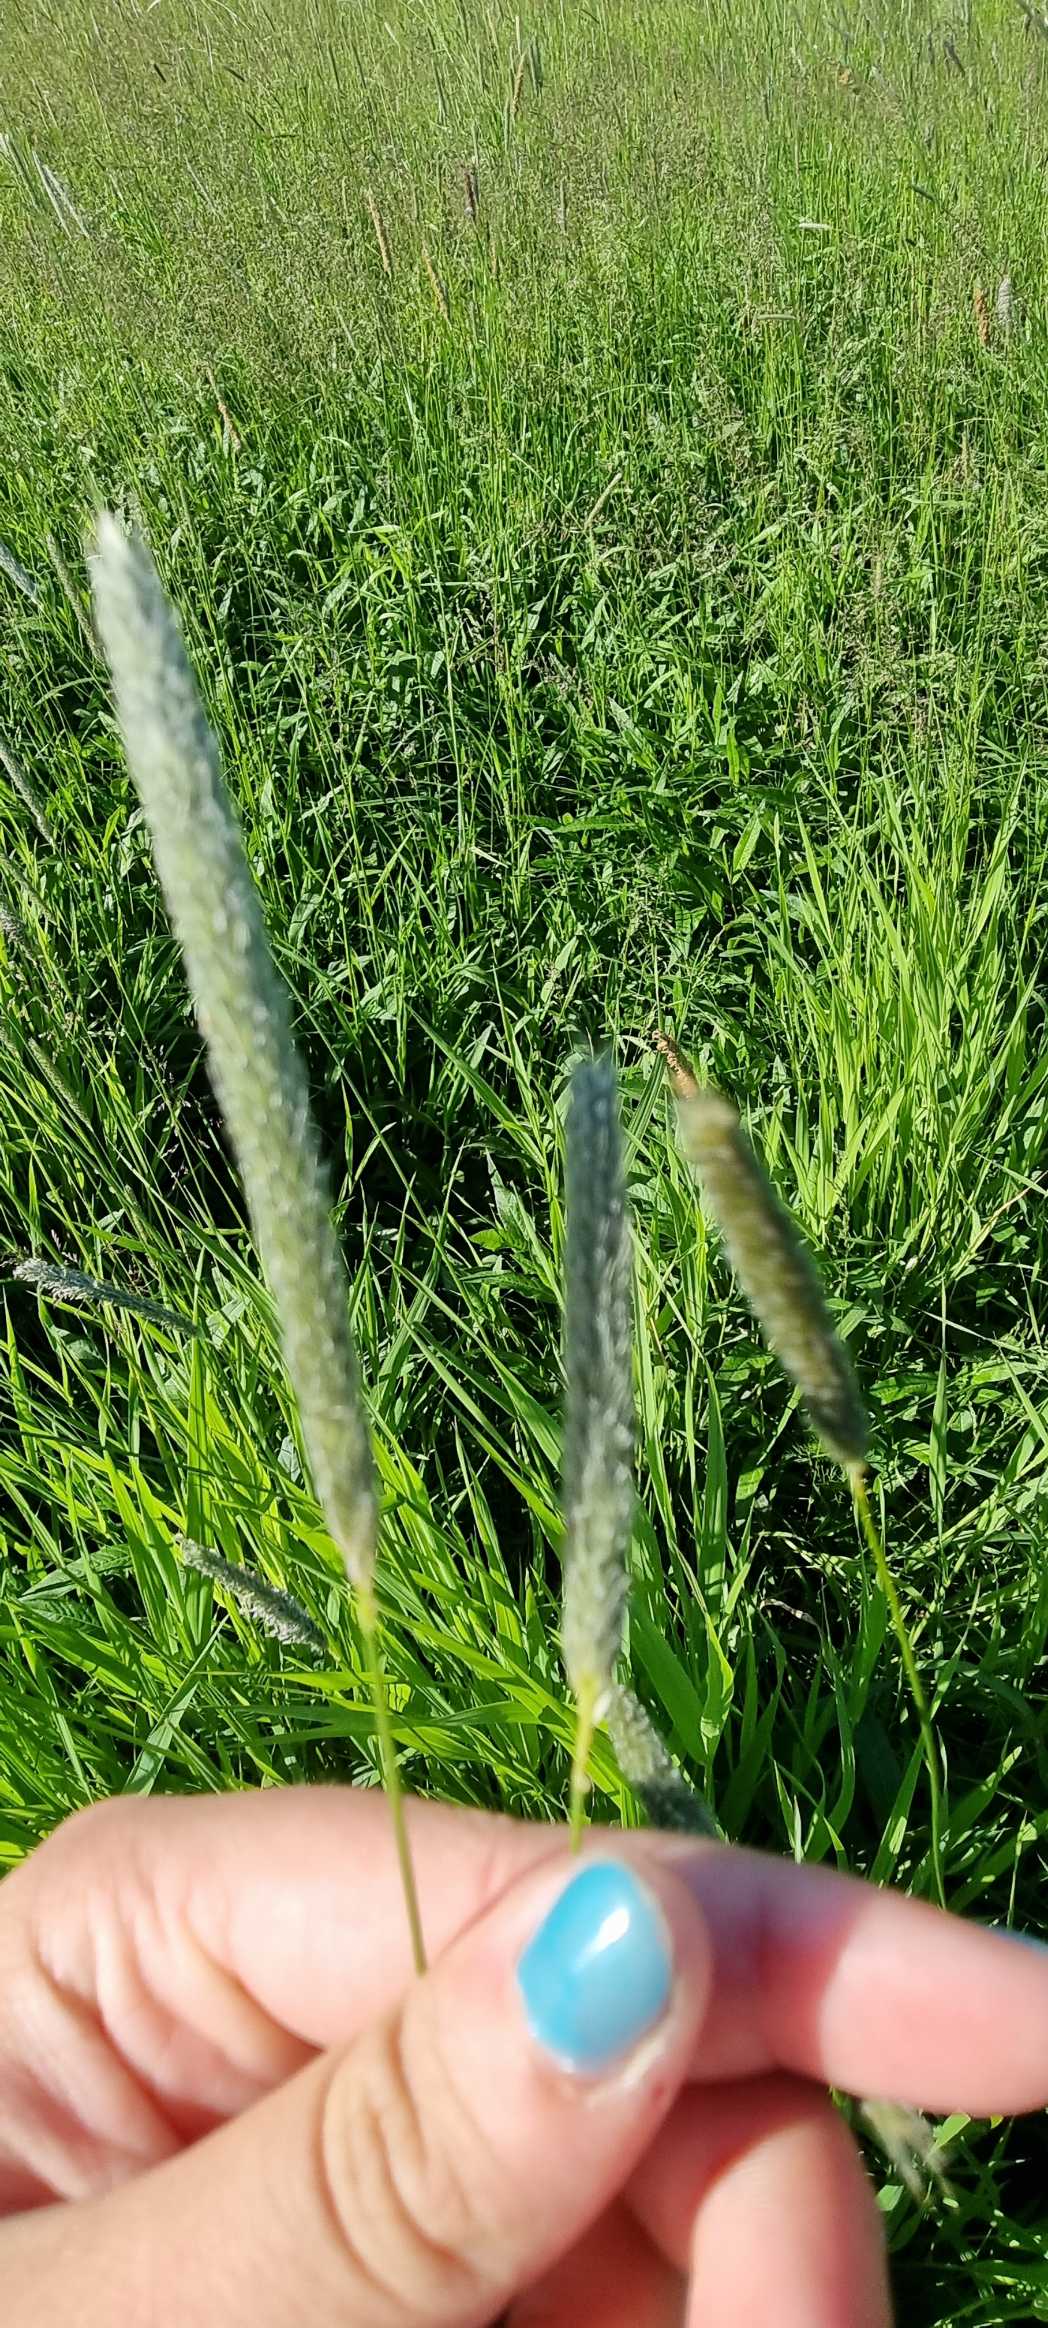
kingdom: Plantae
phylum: Tracheophyta
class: Liliopsida
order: Poales
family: Poaceae
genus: Alopecurus
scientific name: Alopecurus pratensis
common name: Eng-rævehale
